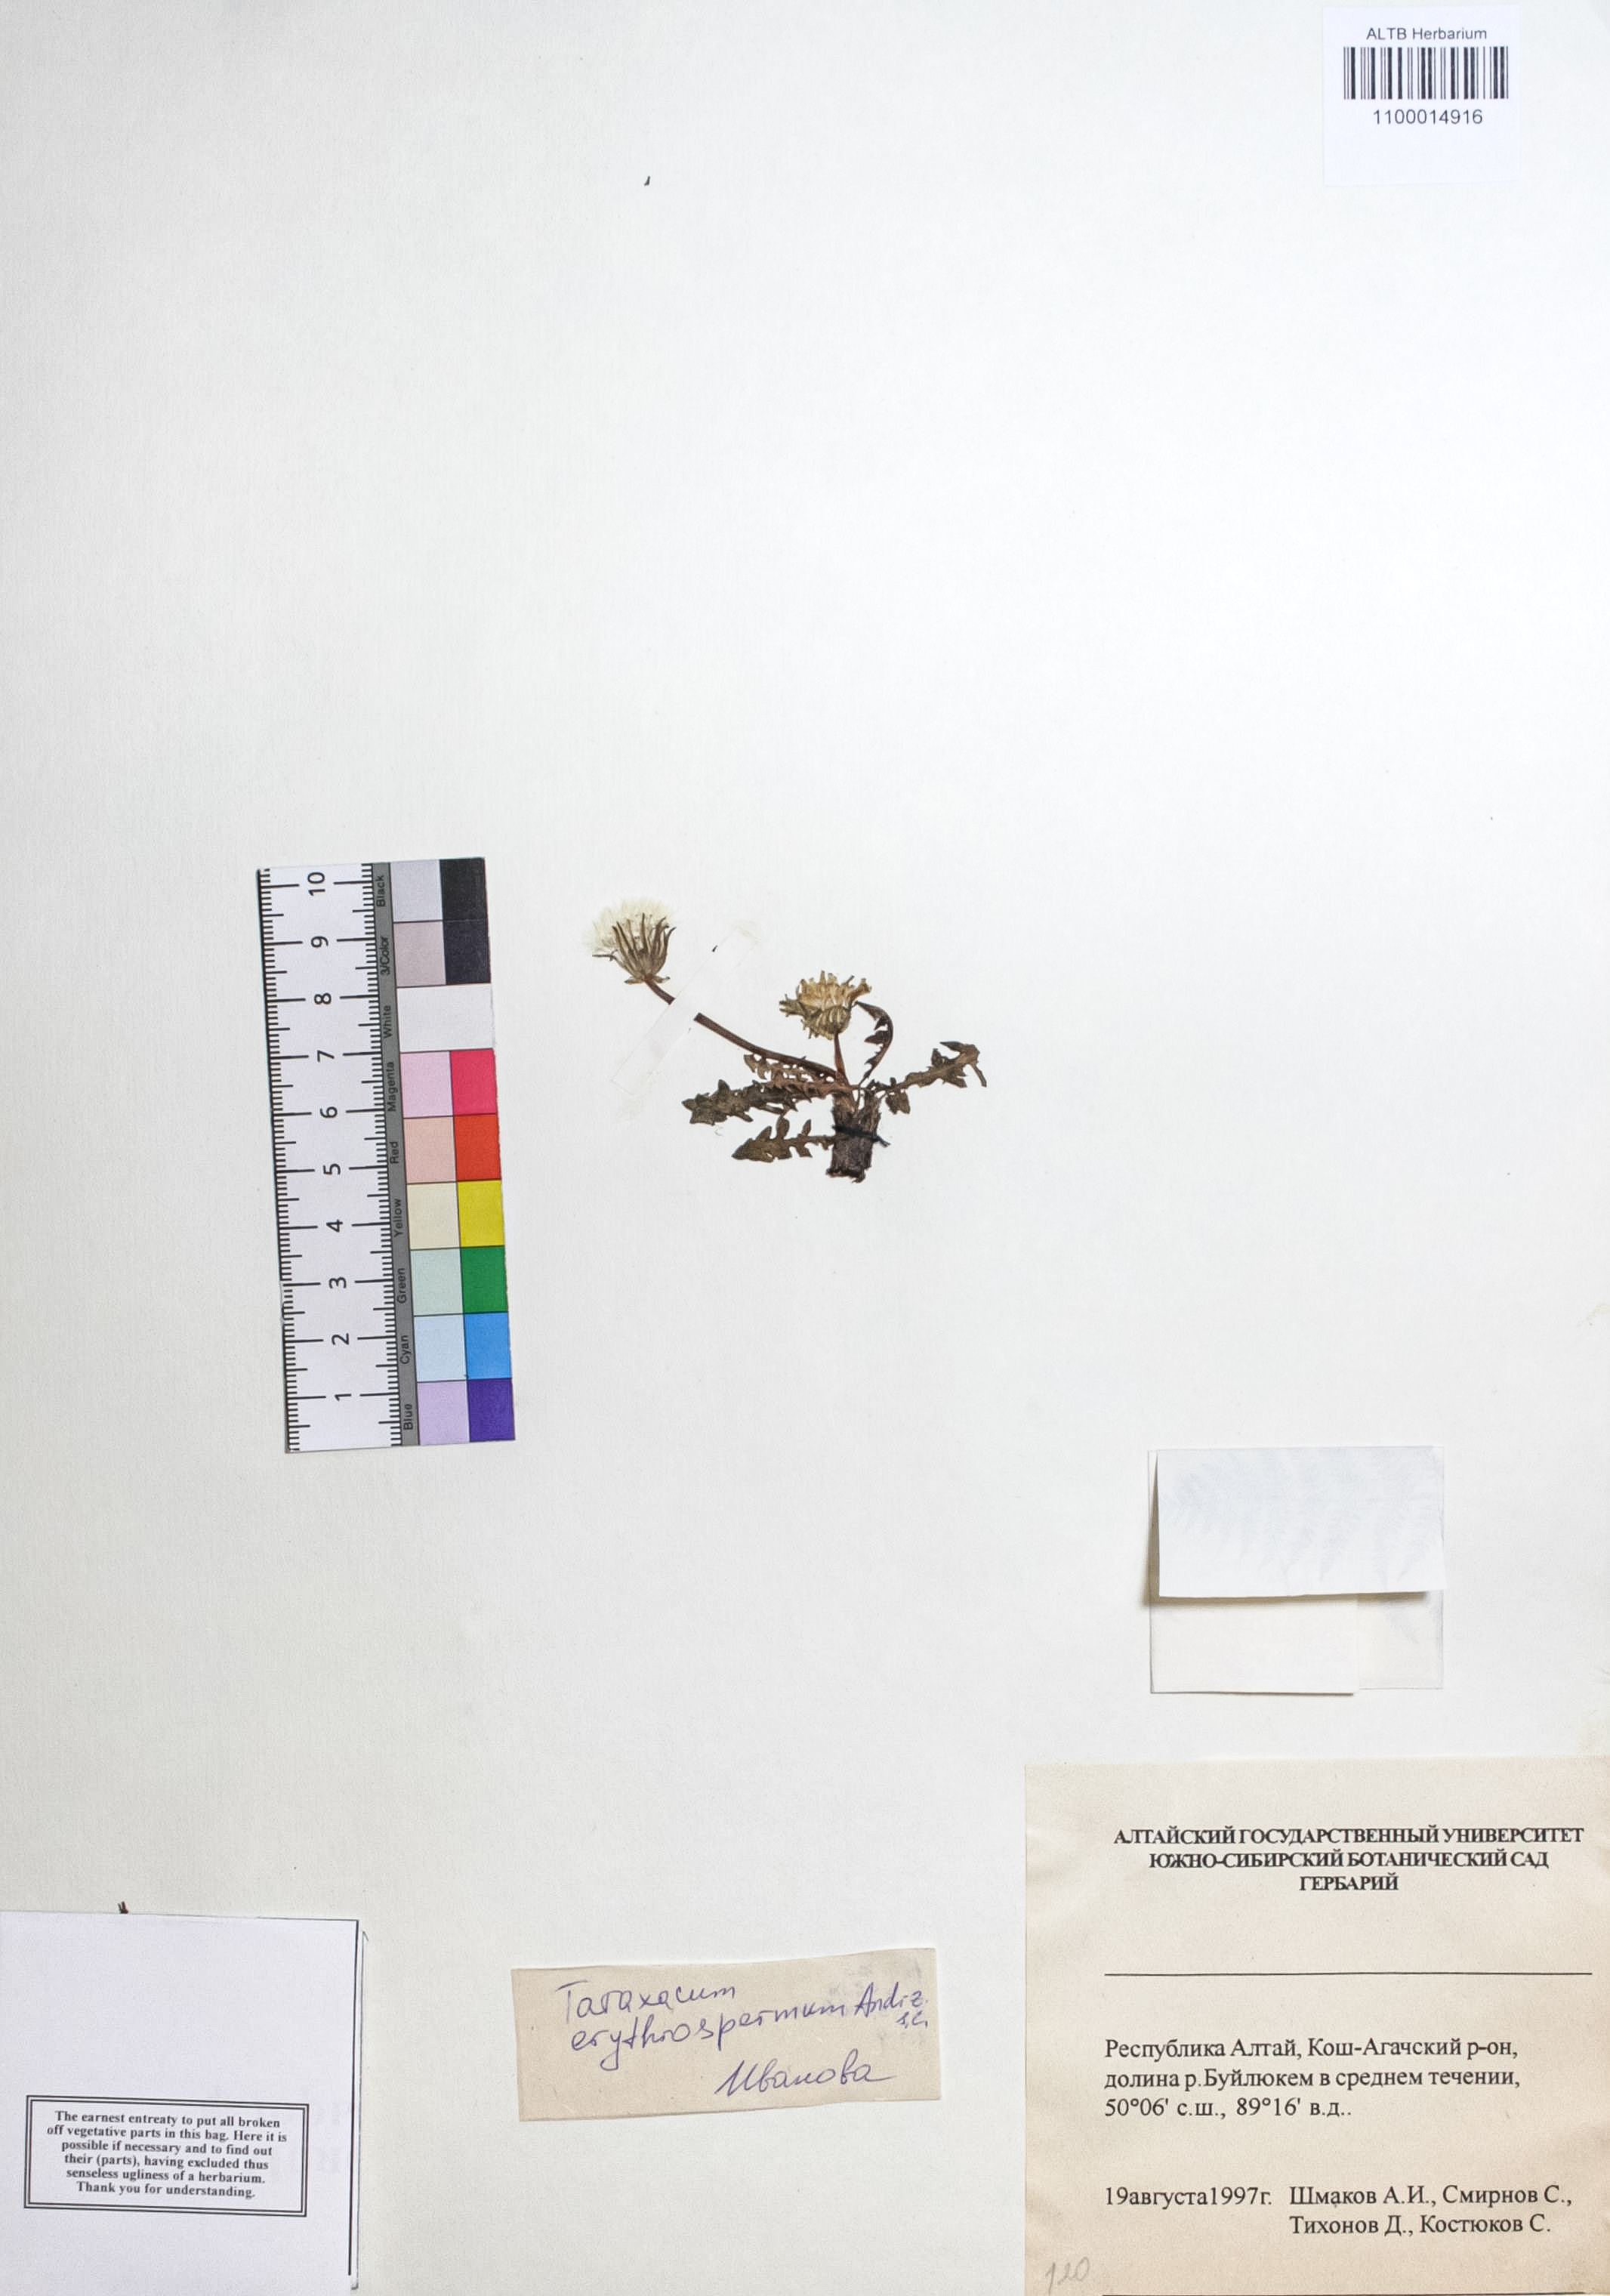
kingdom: Plantae
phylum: Tracheophyta
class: Magnoliopsida
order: Asterales
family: Asteraceae
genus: Taraxacum
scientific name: Taraxacum erythrospermum
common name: Rock dandelion
